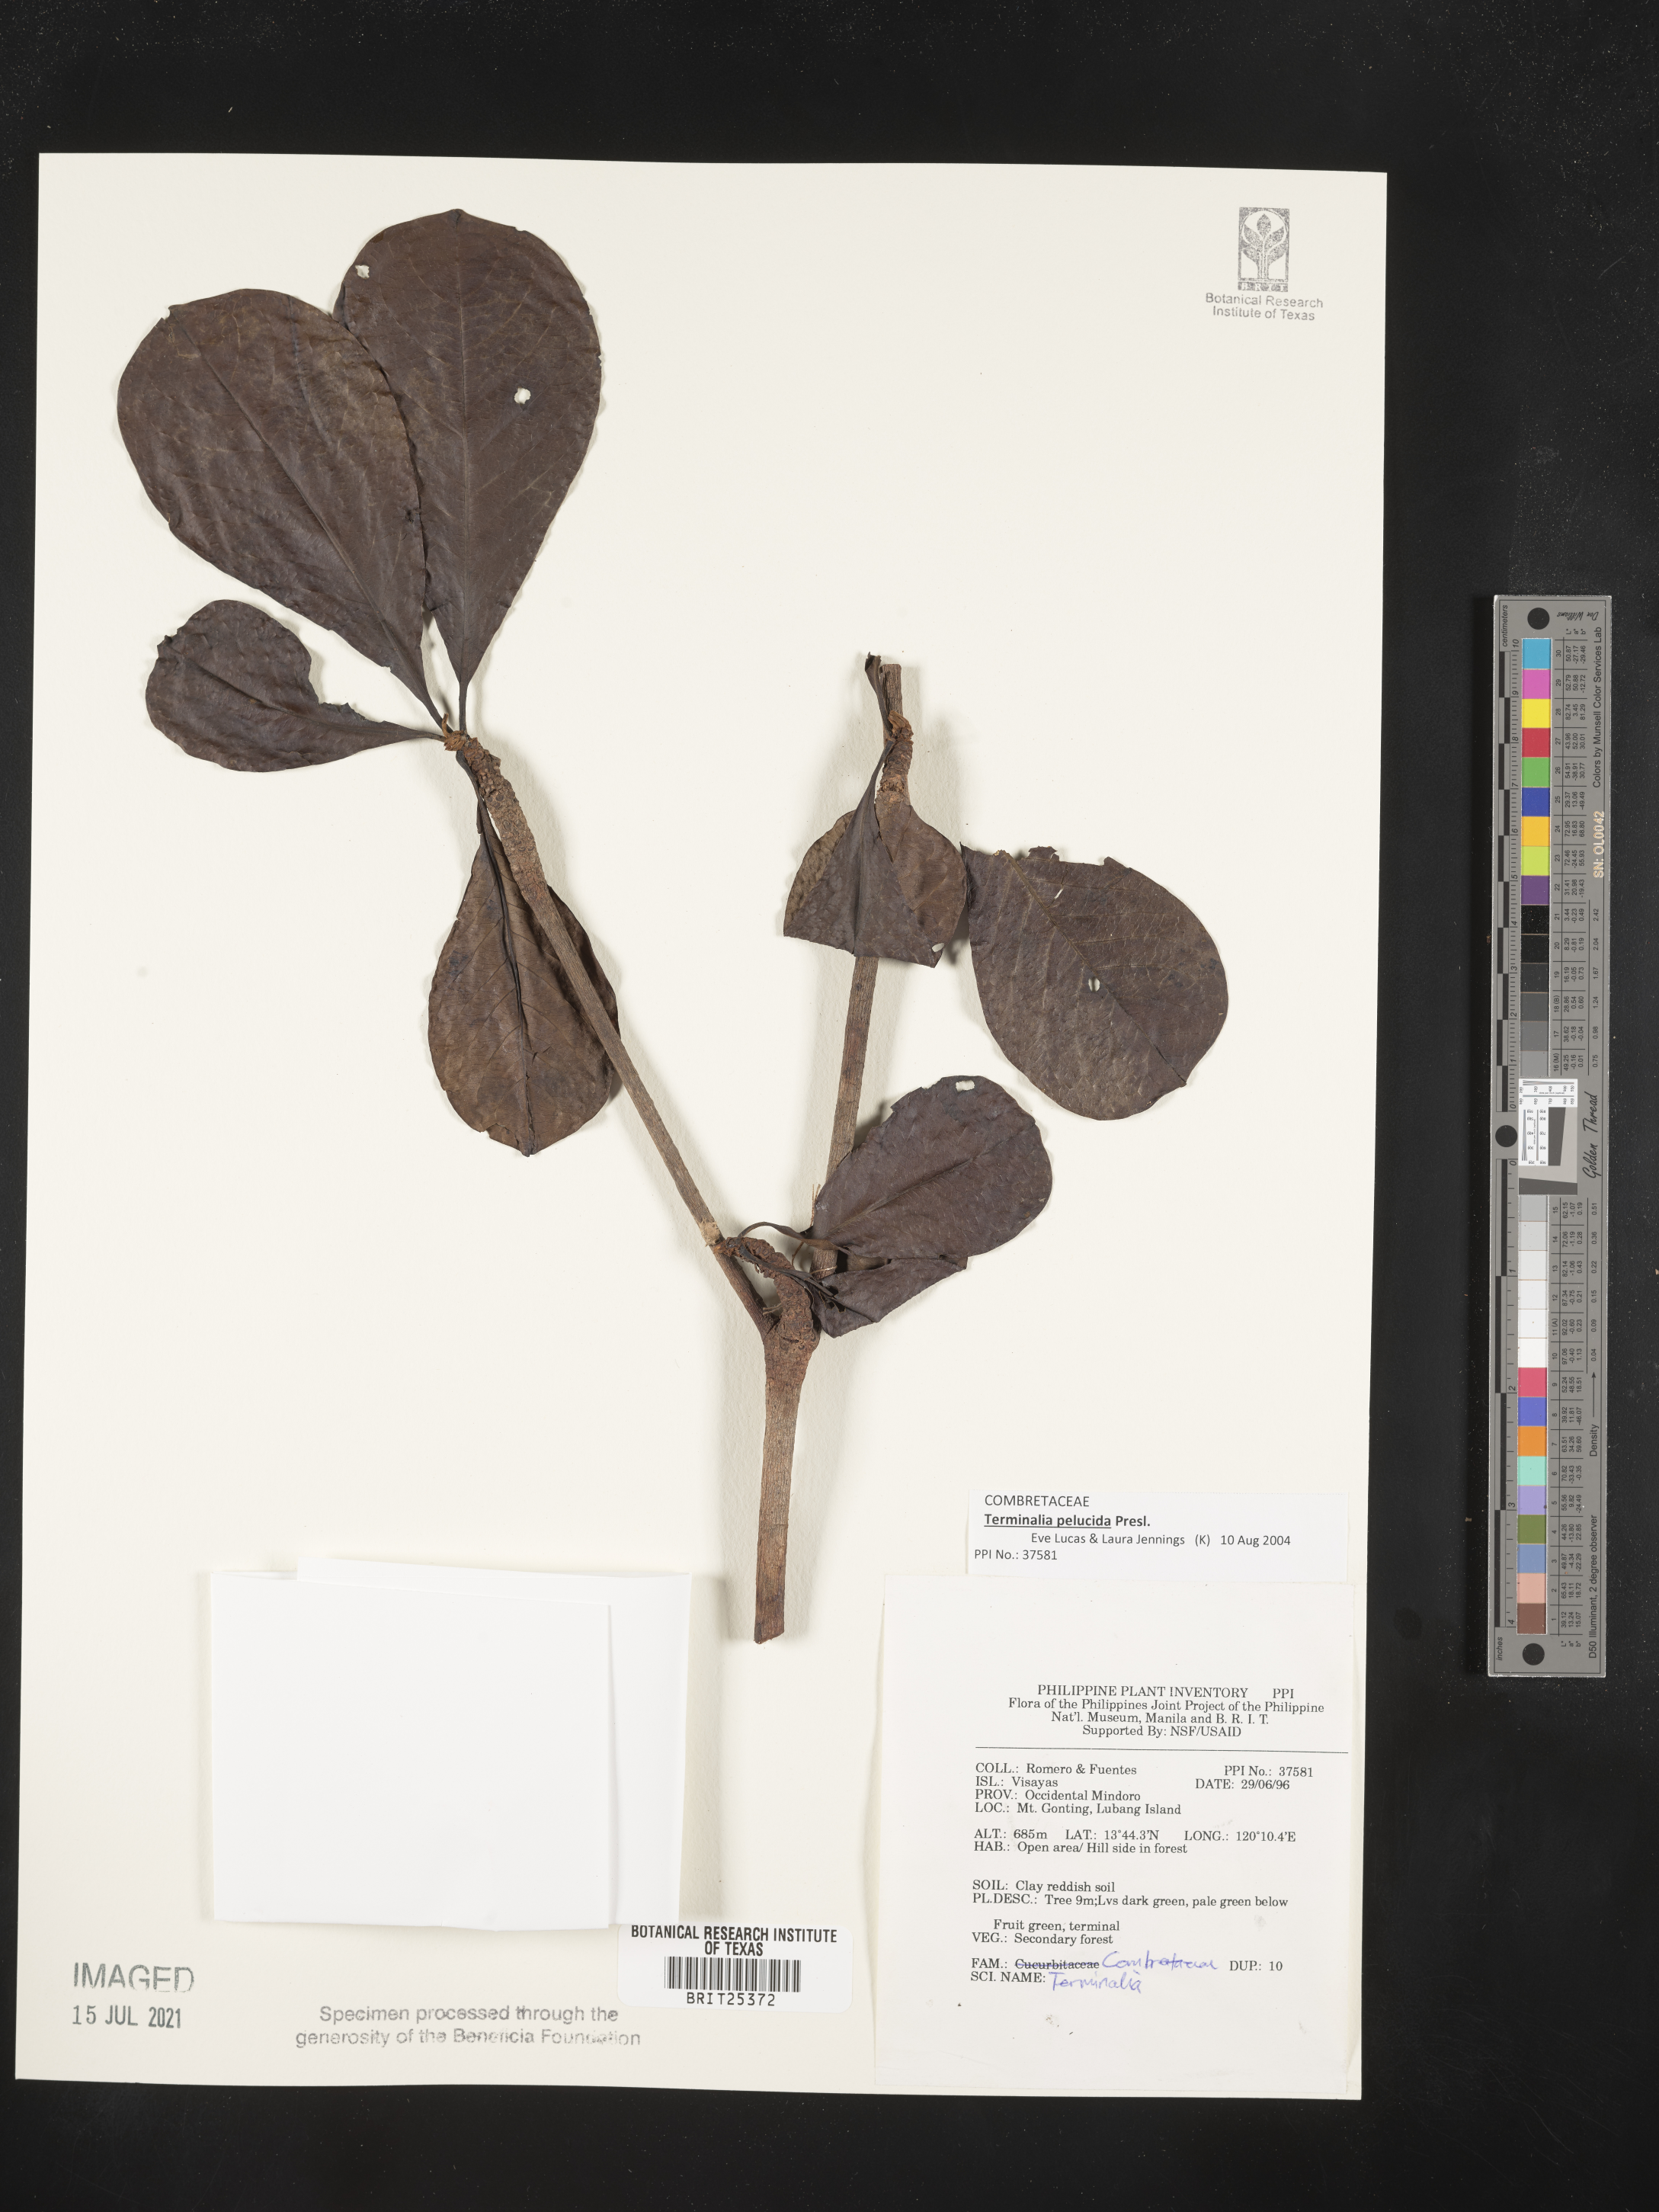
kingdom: Plantae
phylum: Tracheophyta
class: Magnoliopsida
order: Myrtales
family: Combretaceae
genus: Terminalia
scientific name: Terminalia
